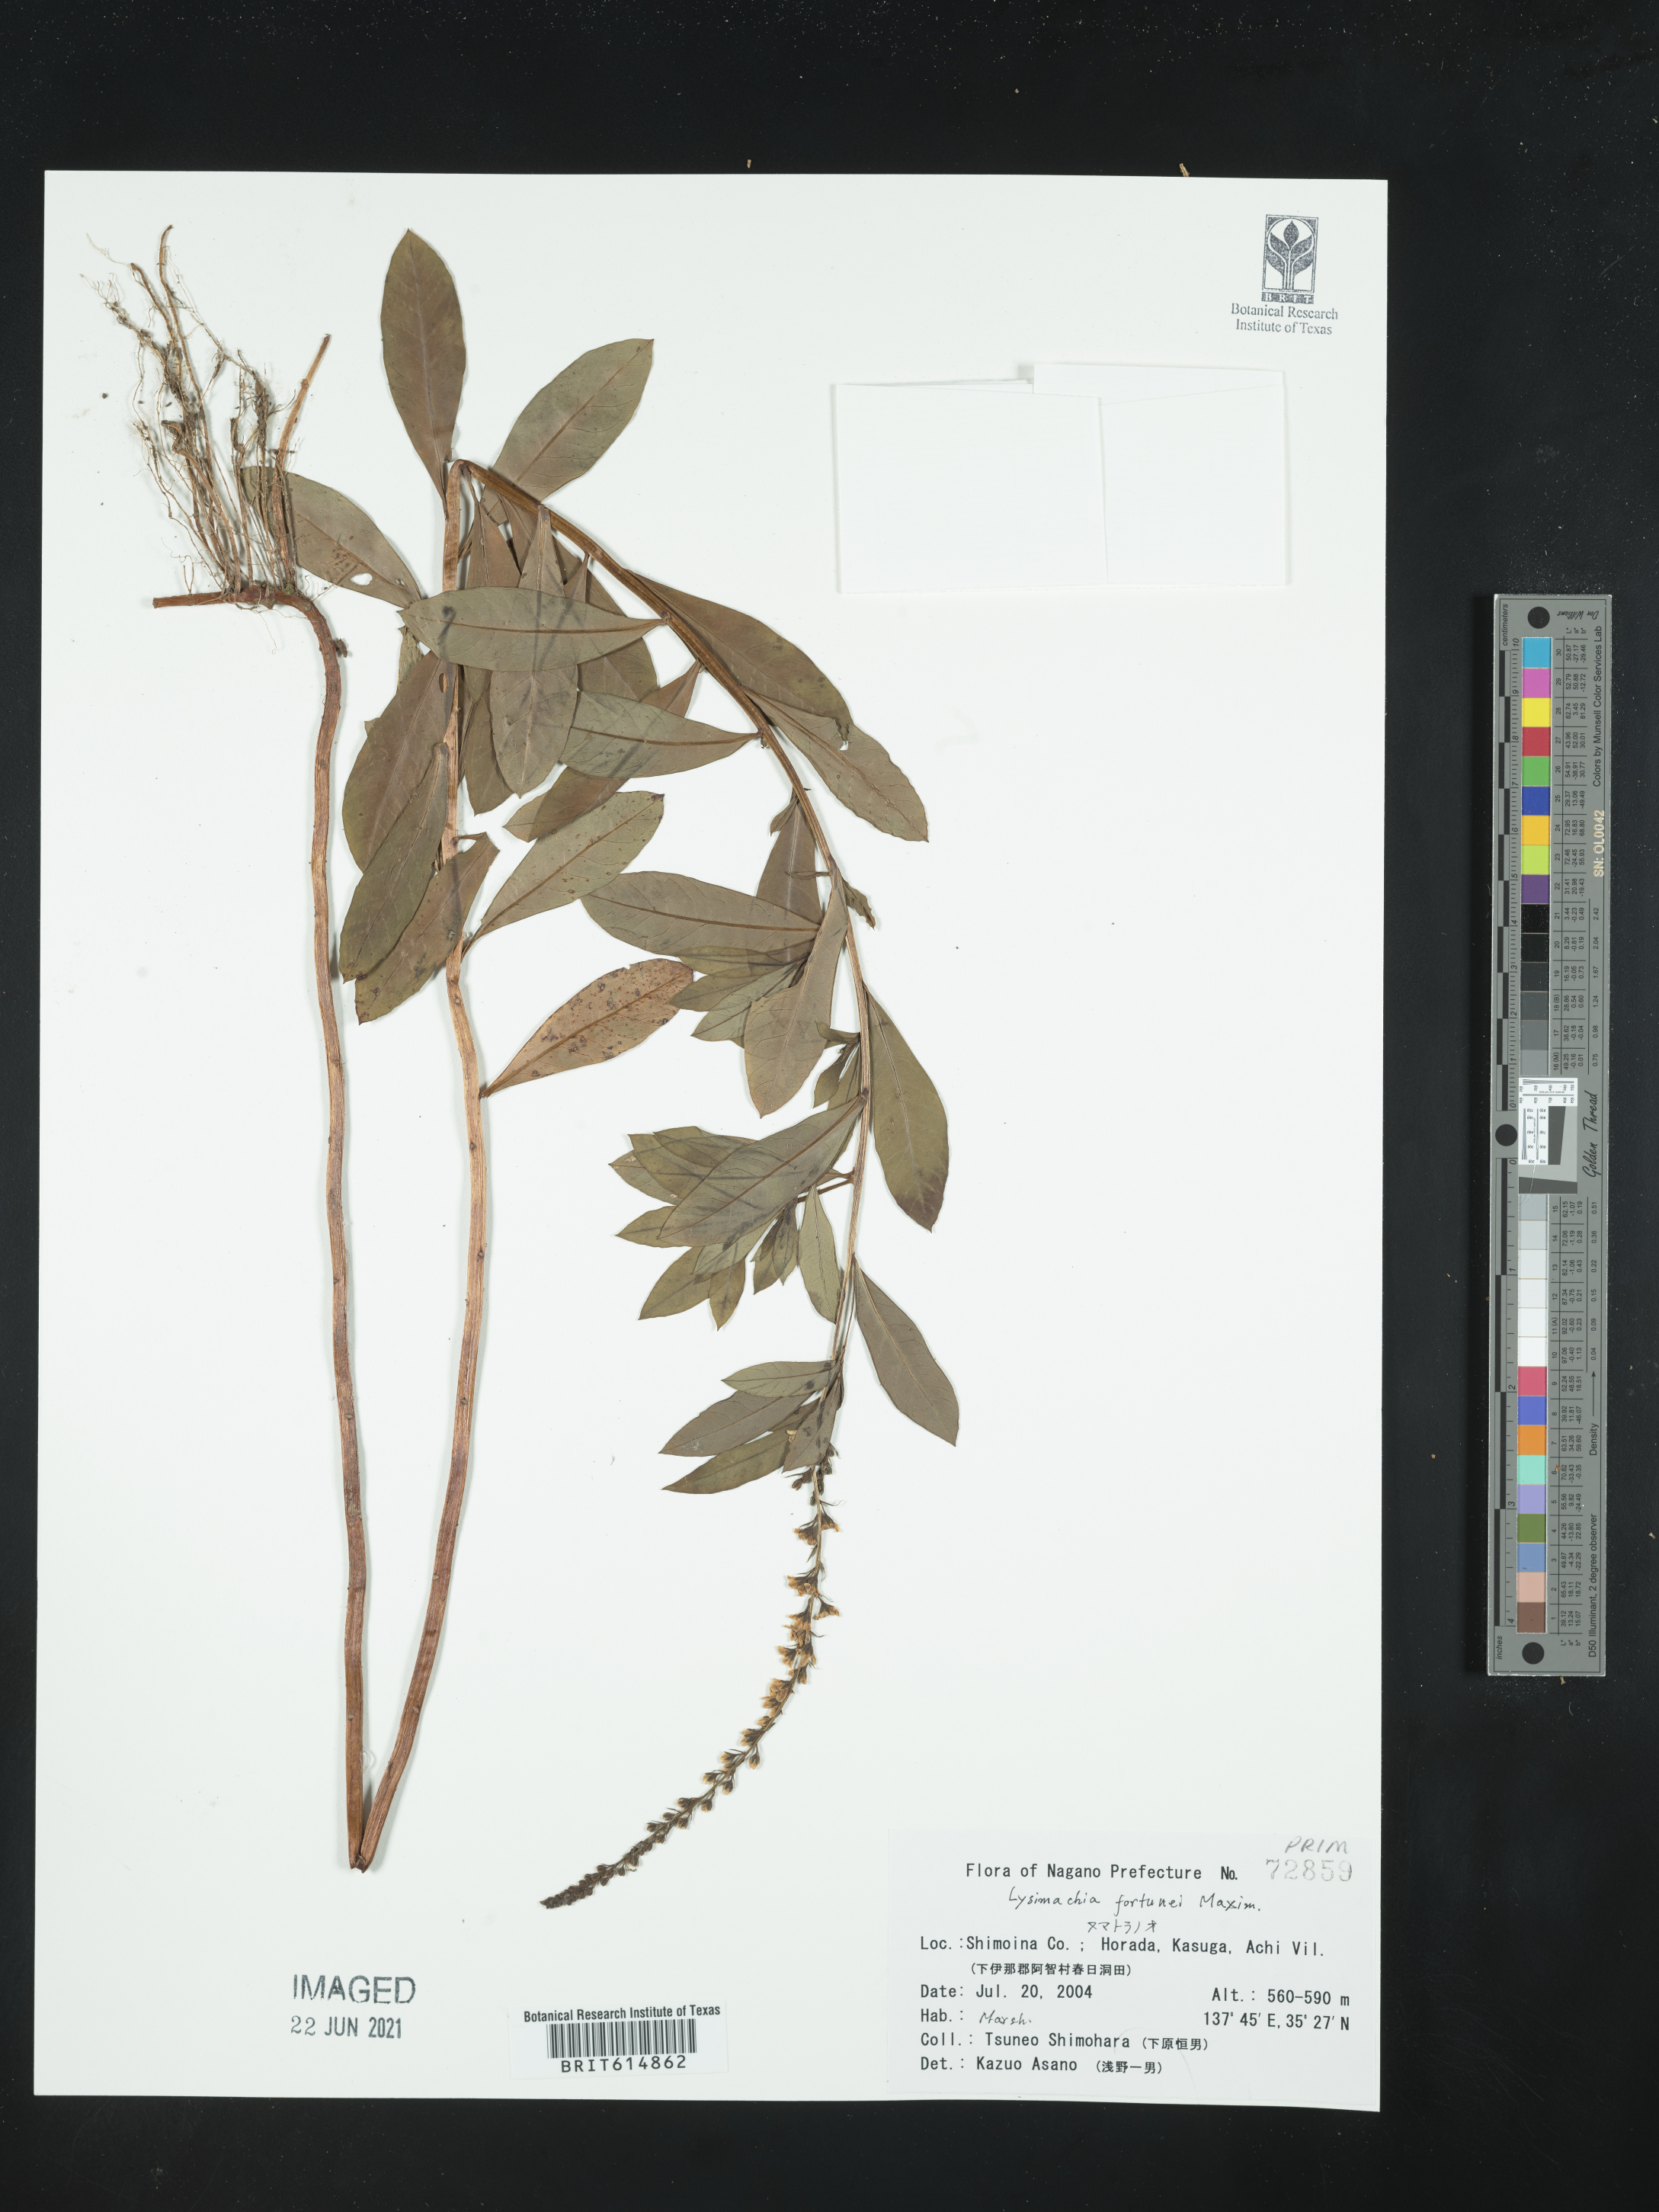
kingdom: Plantae
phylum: Tracheophyta
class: Magnoliopsida
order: Ericales
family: Primulaceae
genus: Lysimachia
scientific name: Lysimachia fortunei
